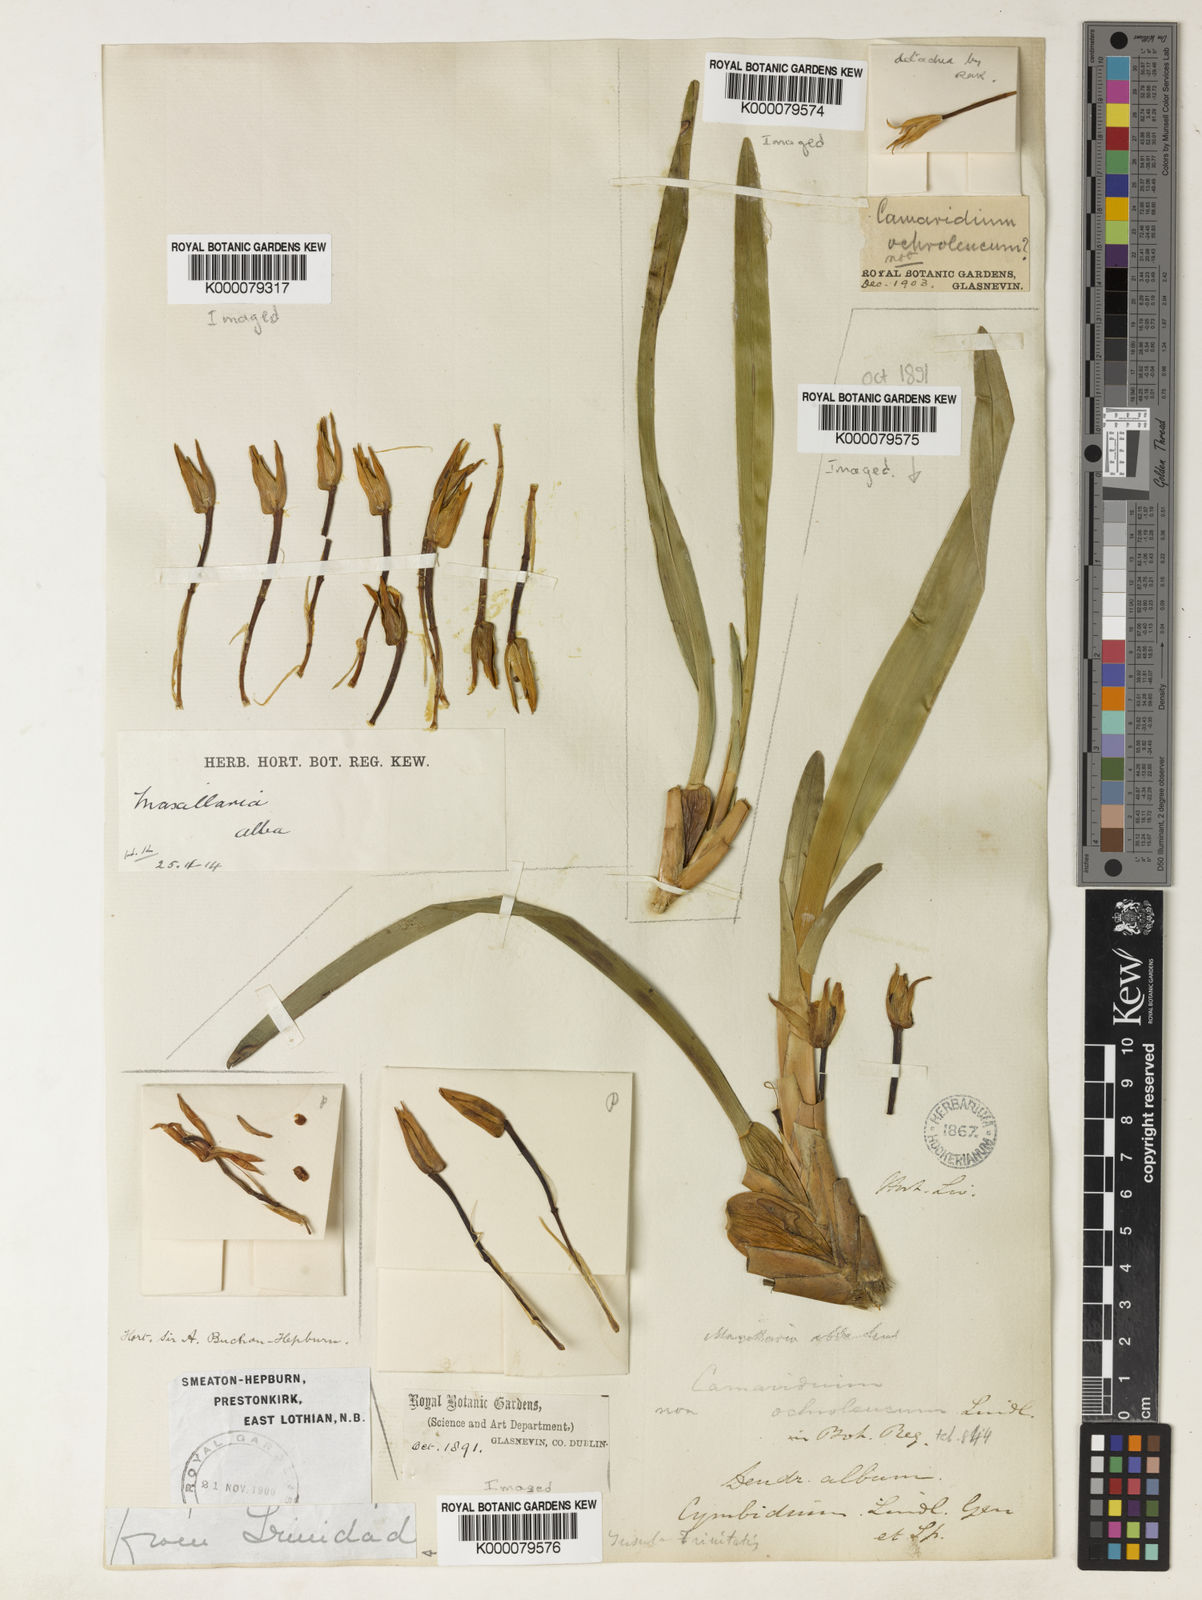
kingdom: Plantae
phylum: Tracheophyta
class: Liliopsida
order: Asparagales
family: Orchidaceae
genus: Maxillaria
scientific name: Maxillaria alba
